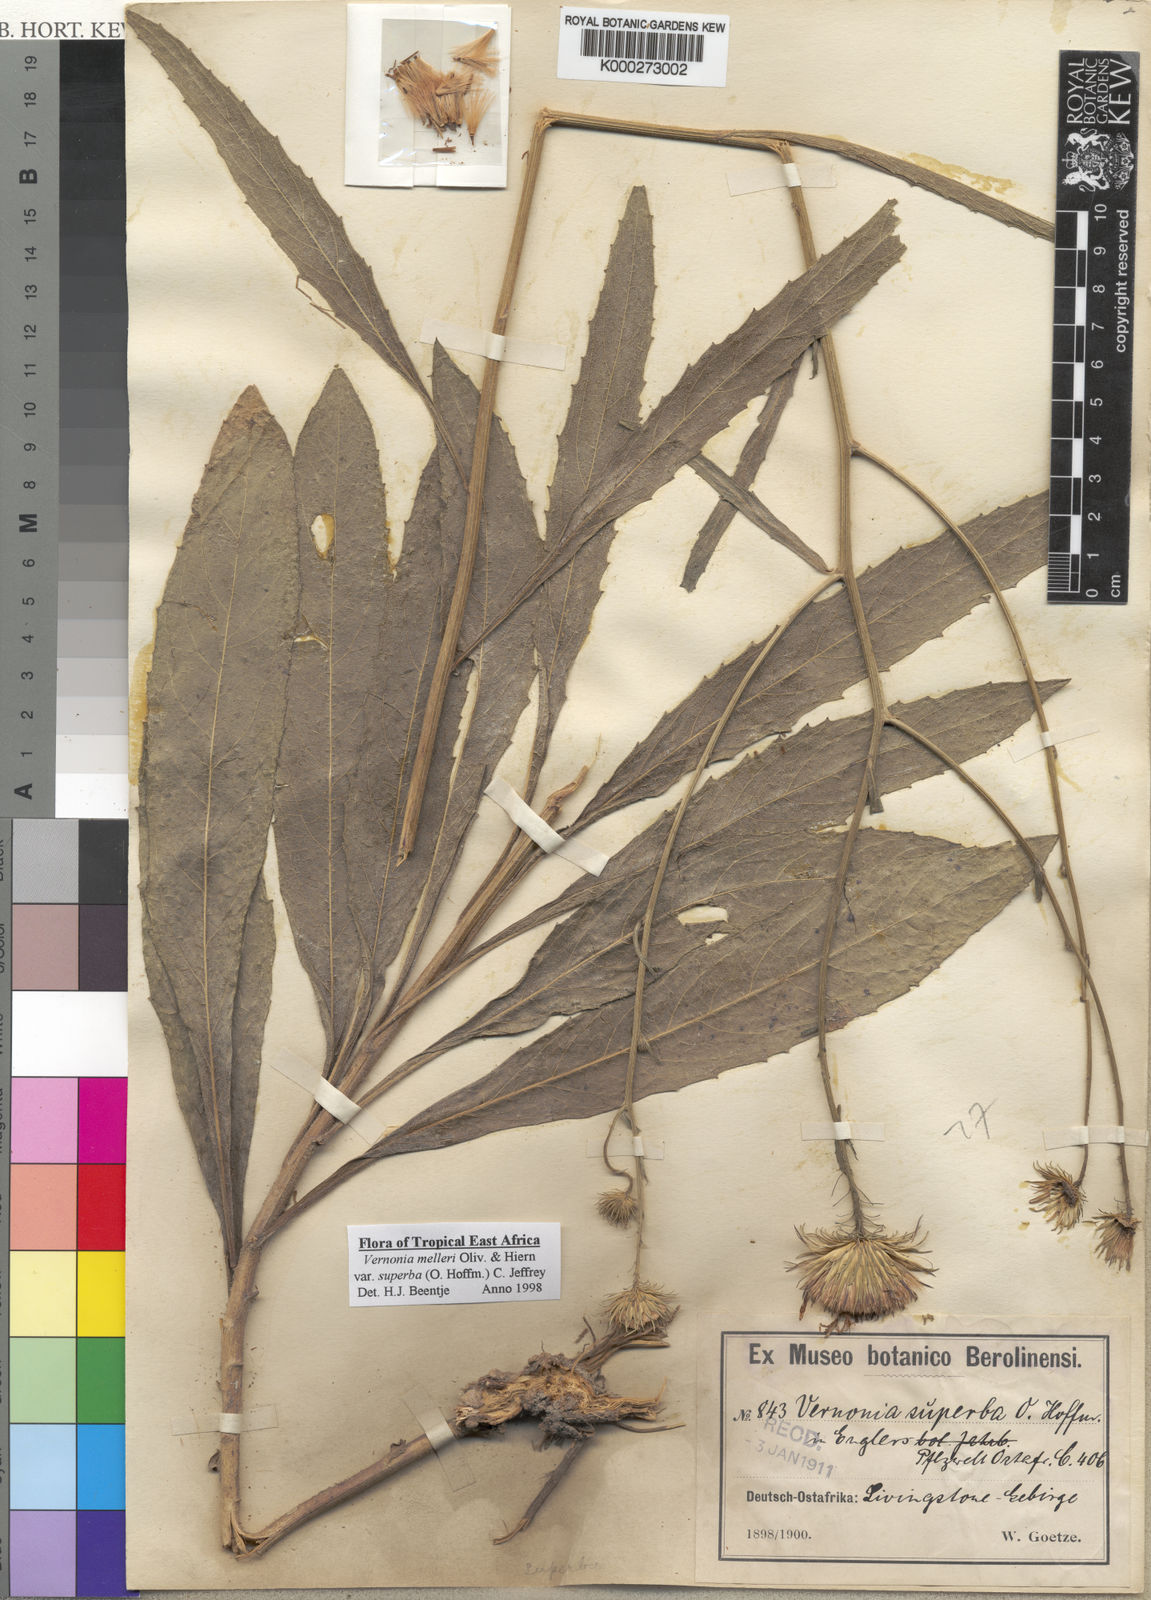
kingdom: Plantae
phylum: Tracheophyta
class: Magnoliopsida
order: Asterales
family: Asteraceae
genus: Linzia
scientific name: Linzia melleri
